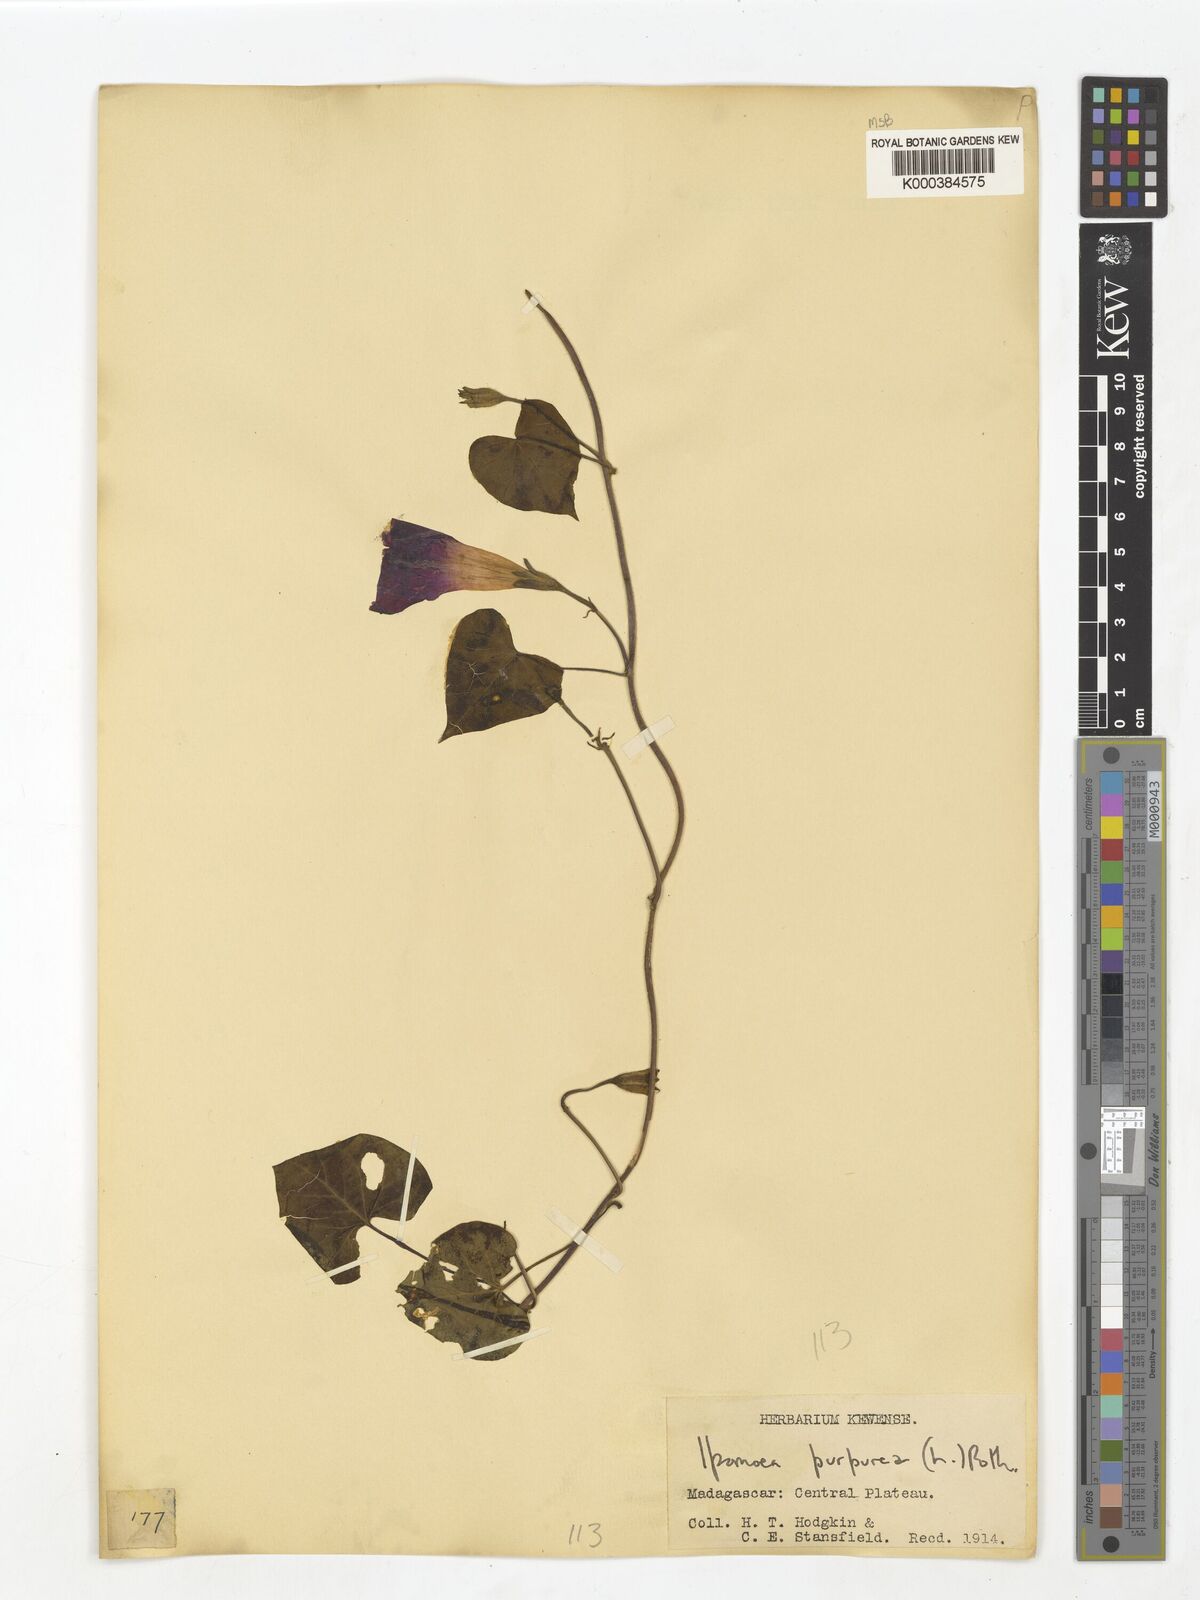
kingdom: Plantae
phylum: Tracheophyta
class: Magnoliopsida
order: Solanales
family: Convolvulaceae
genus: Ipomoea
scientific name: Ipomoea purpurea
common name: Common morning-glory
